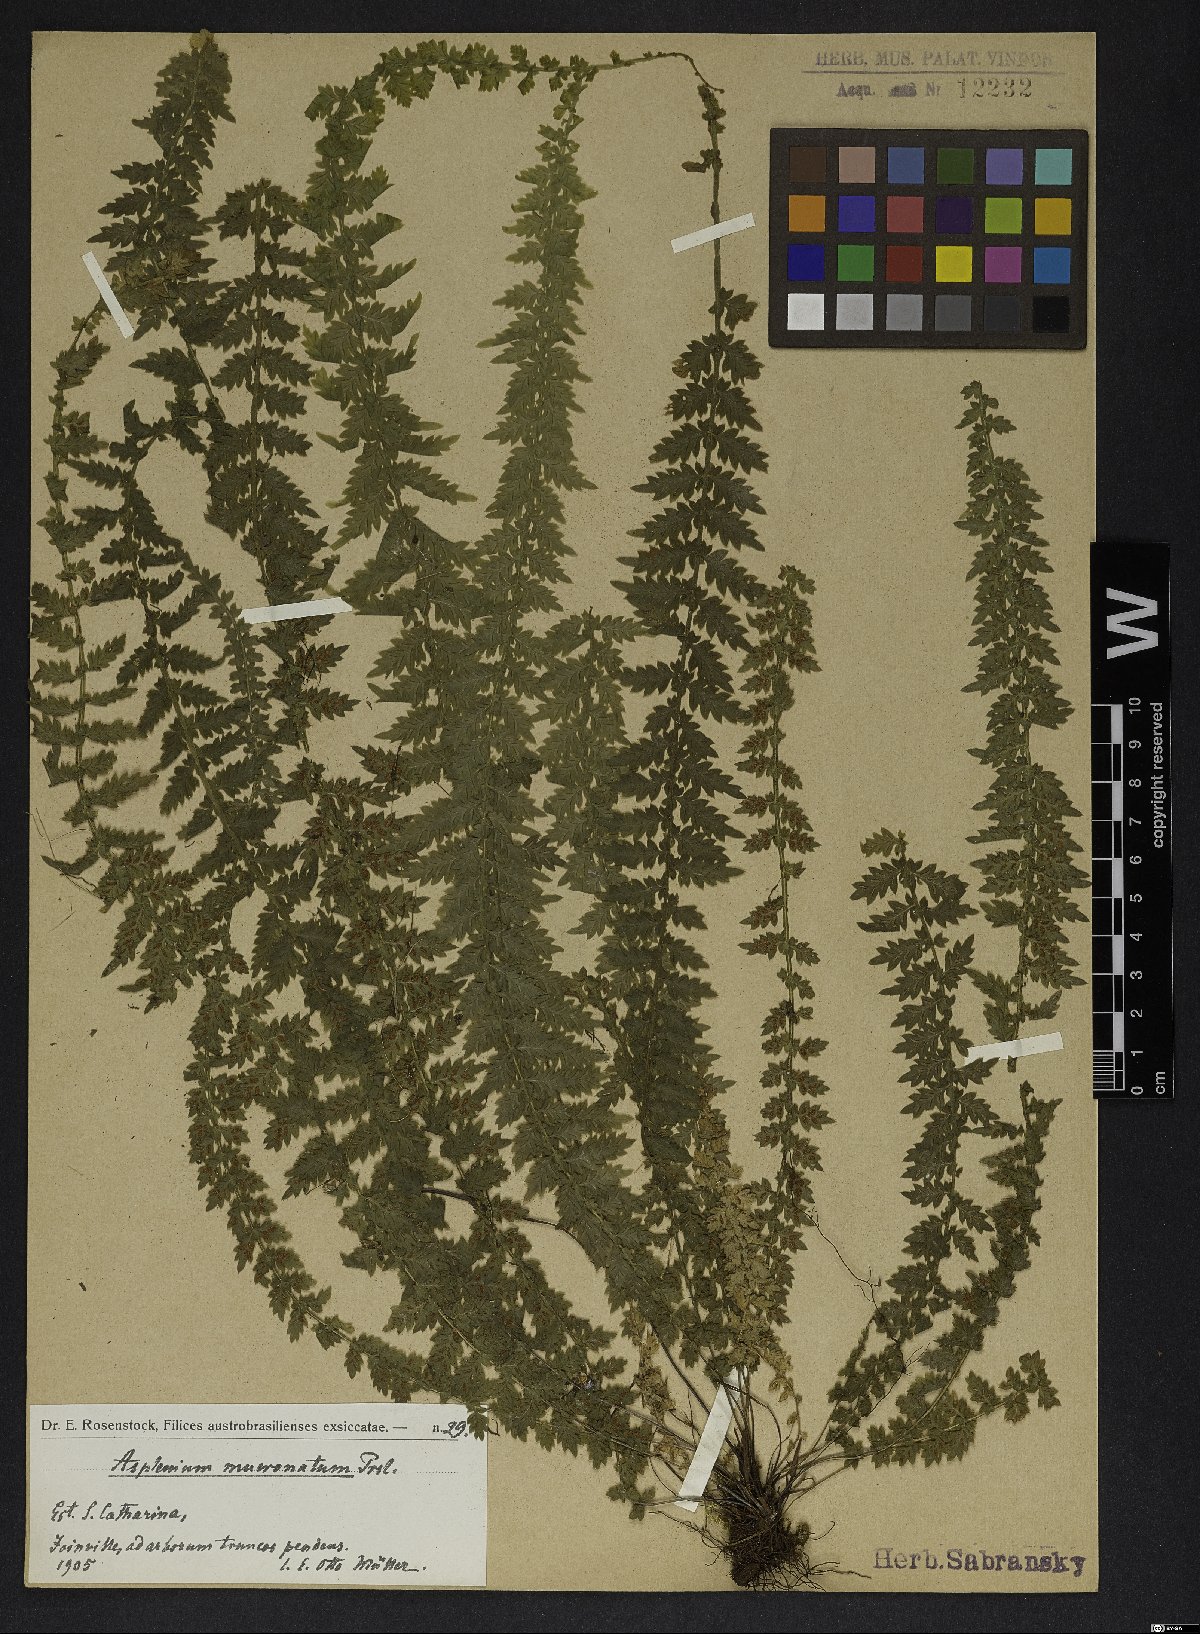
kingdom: Plantae
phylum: Tracheophyta
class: Polypodiopsida
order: Polypodiales
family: Aspleniaceae
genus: Asplenium
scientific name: Asplenium mucronatum
